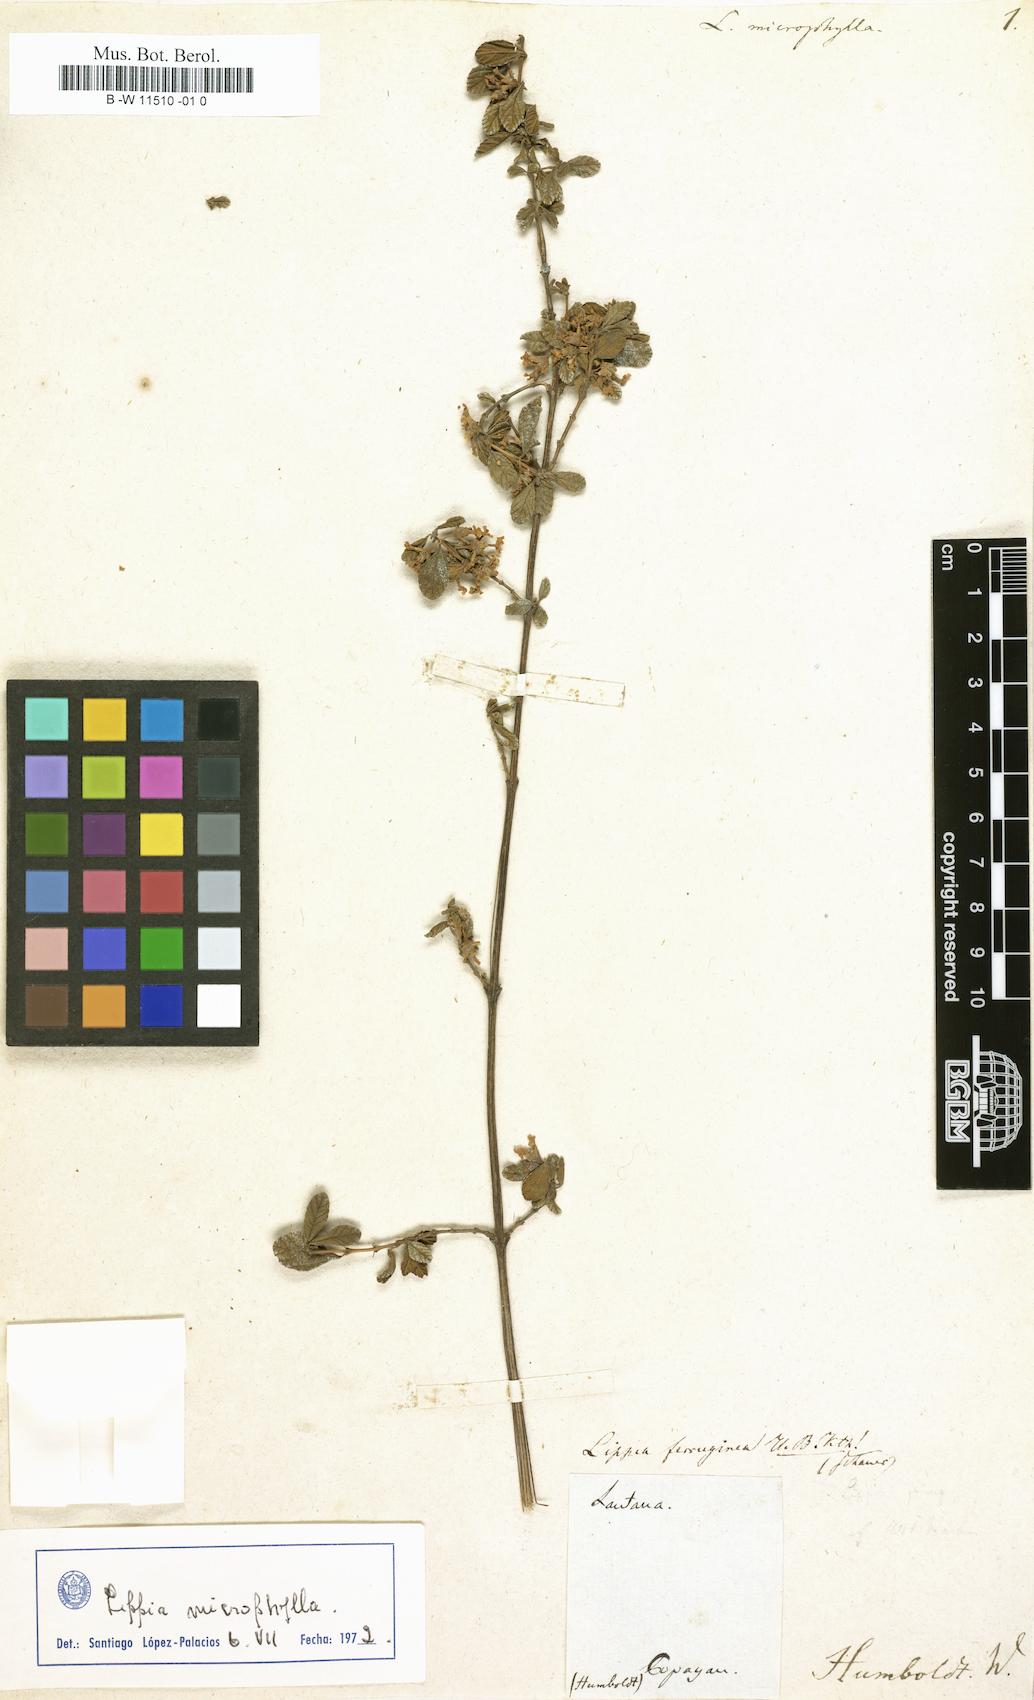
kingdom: Plantae
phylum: Tracheophyta
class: Magnoliopsida
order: Lamiales
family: Verbenaceae
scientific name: Verbenaceae
